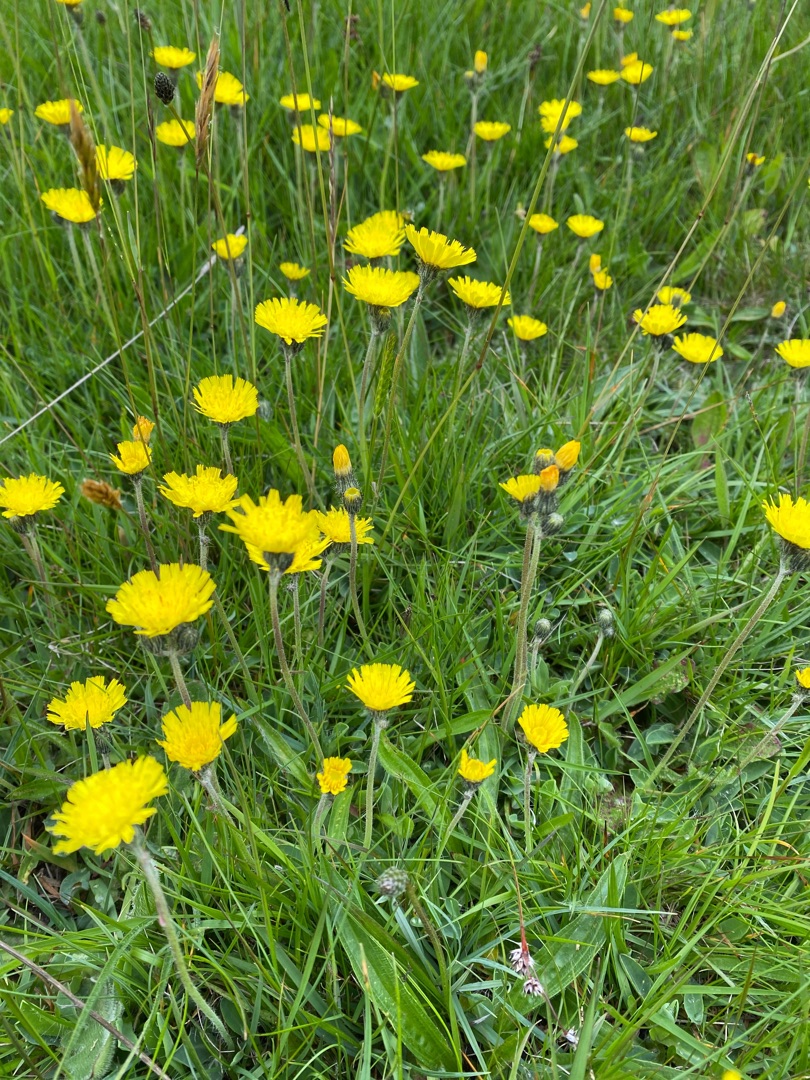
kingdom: Plantae
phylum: Tracheophyta
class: Magnoliopsida
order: Asterales
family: Asteraceae
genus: Pilosella
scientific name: Pilosella lactucella
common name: Lancetbladet høgeurt
